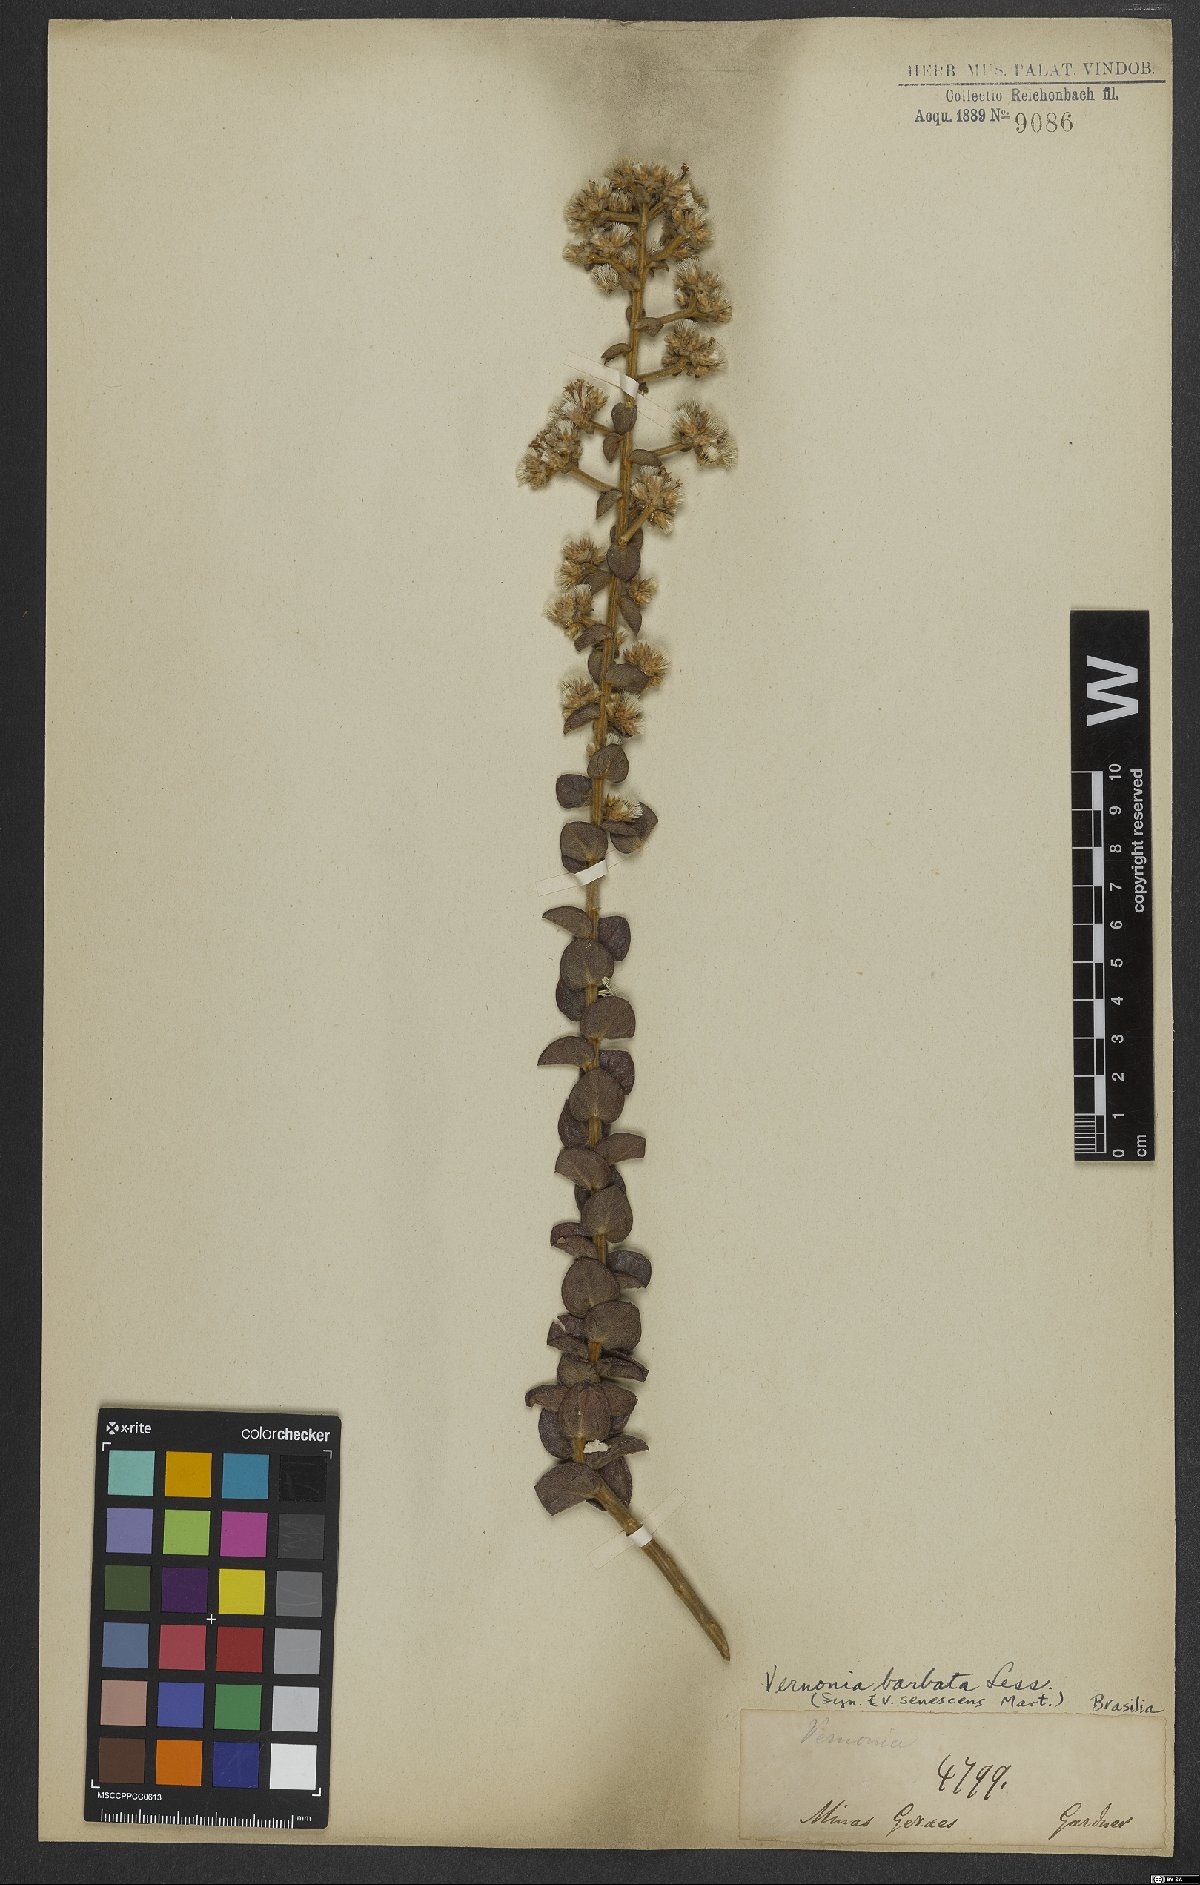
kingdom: Plantae
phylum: Tracheophyta
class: Magnoliopsida
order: Asterales
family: Asteraceae
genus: Lepidaploa
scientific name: Lepidaploa barbata
